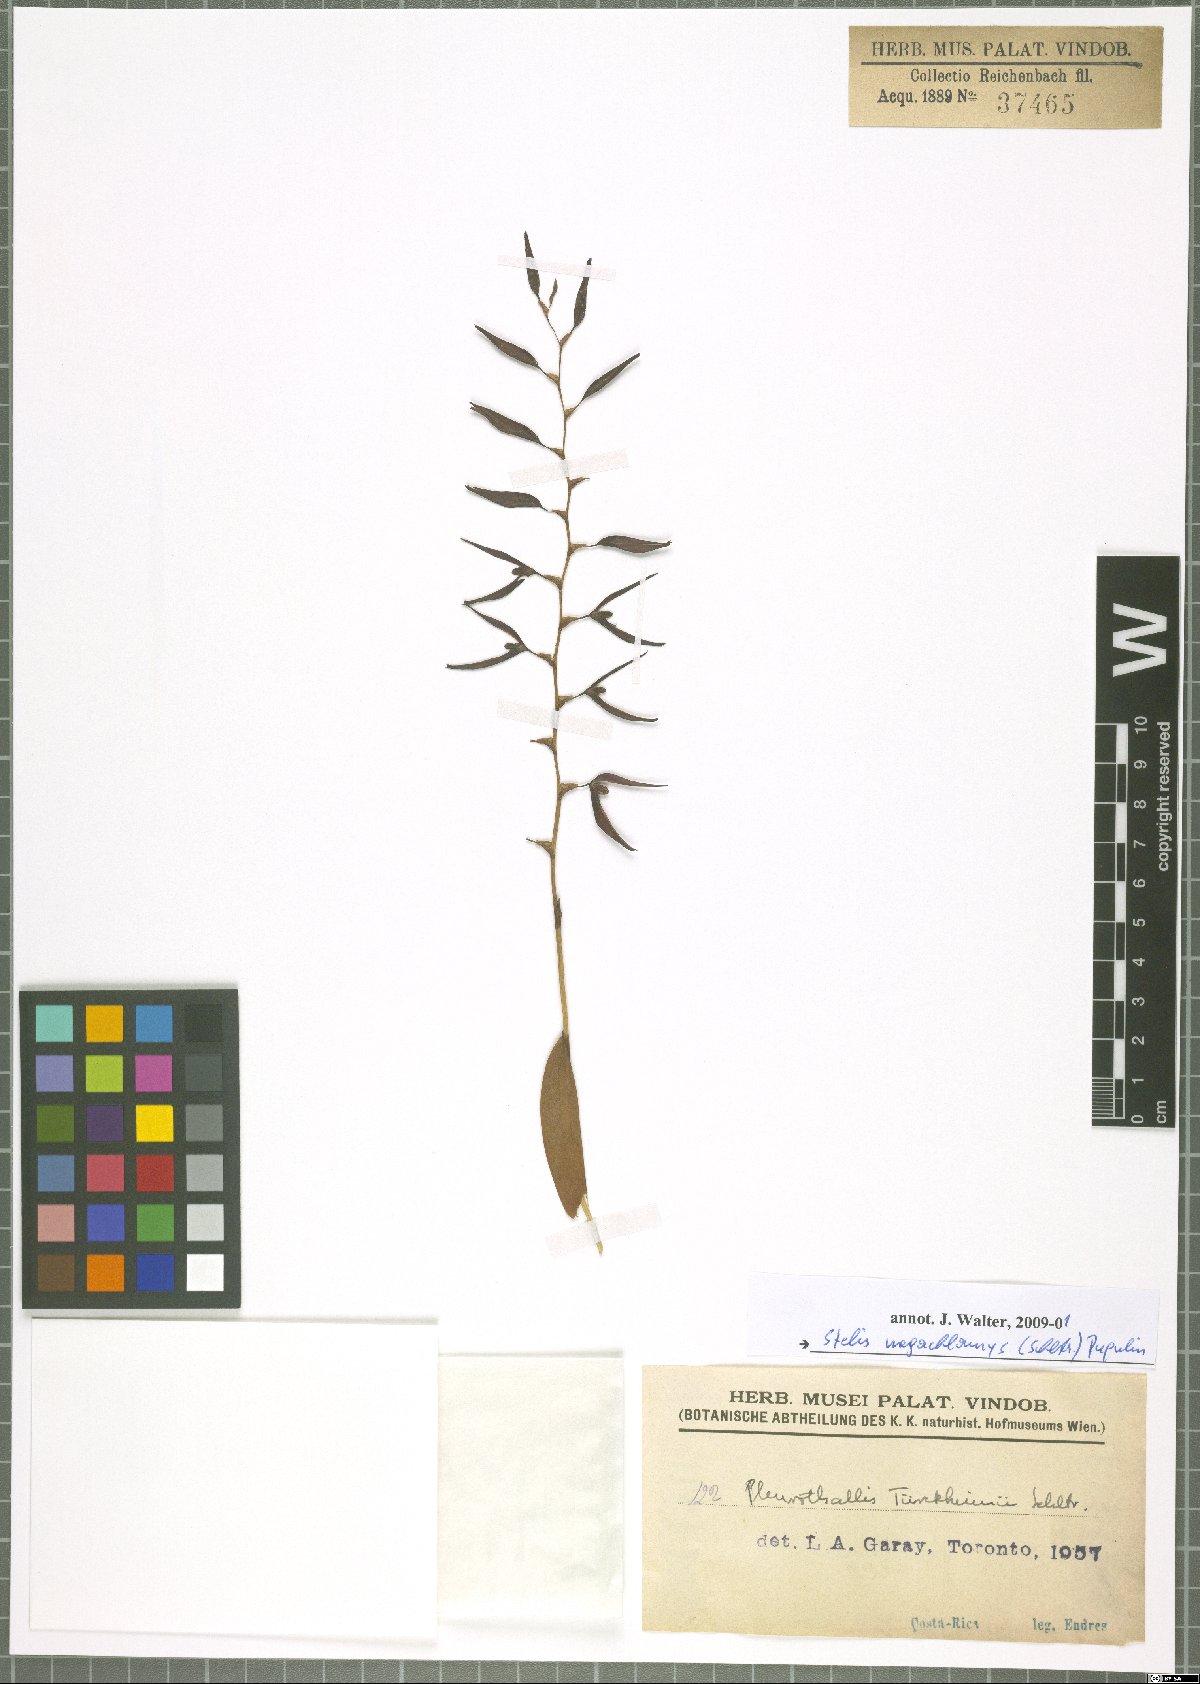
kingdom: Plantae
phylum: Tracheophyta
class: Liliopsida
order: Asparagales
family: Orchidaceae
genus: Stelis
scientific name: Stelis megachlamys
